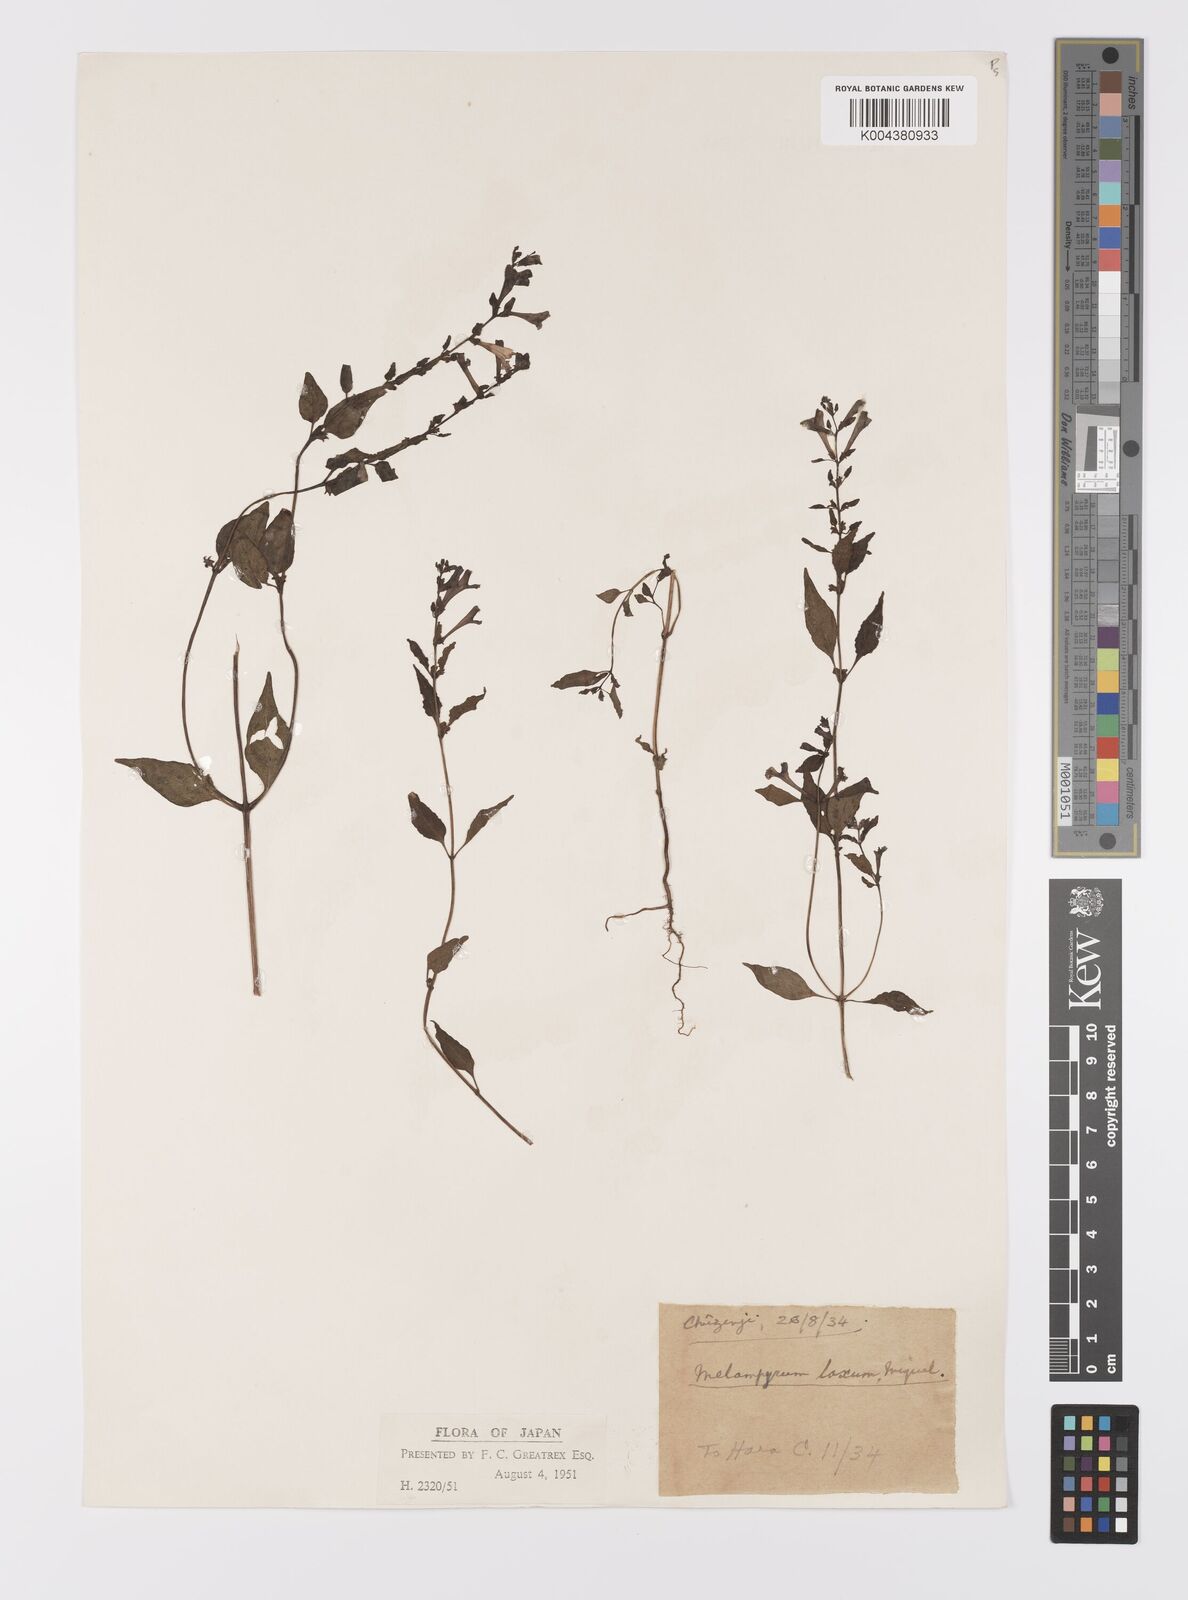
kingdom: Plantae
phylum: Tracheophyta
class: Magnoliopsida
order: Lamiales
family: Orobanchaceae
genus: Melampyrum
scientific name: Melampyrum laxum
